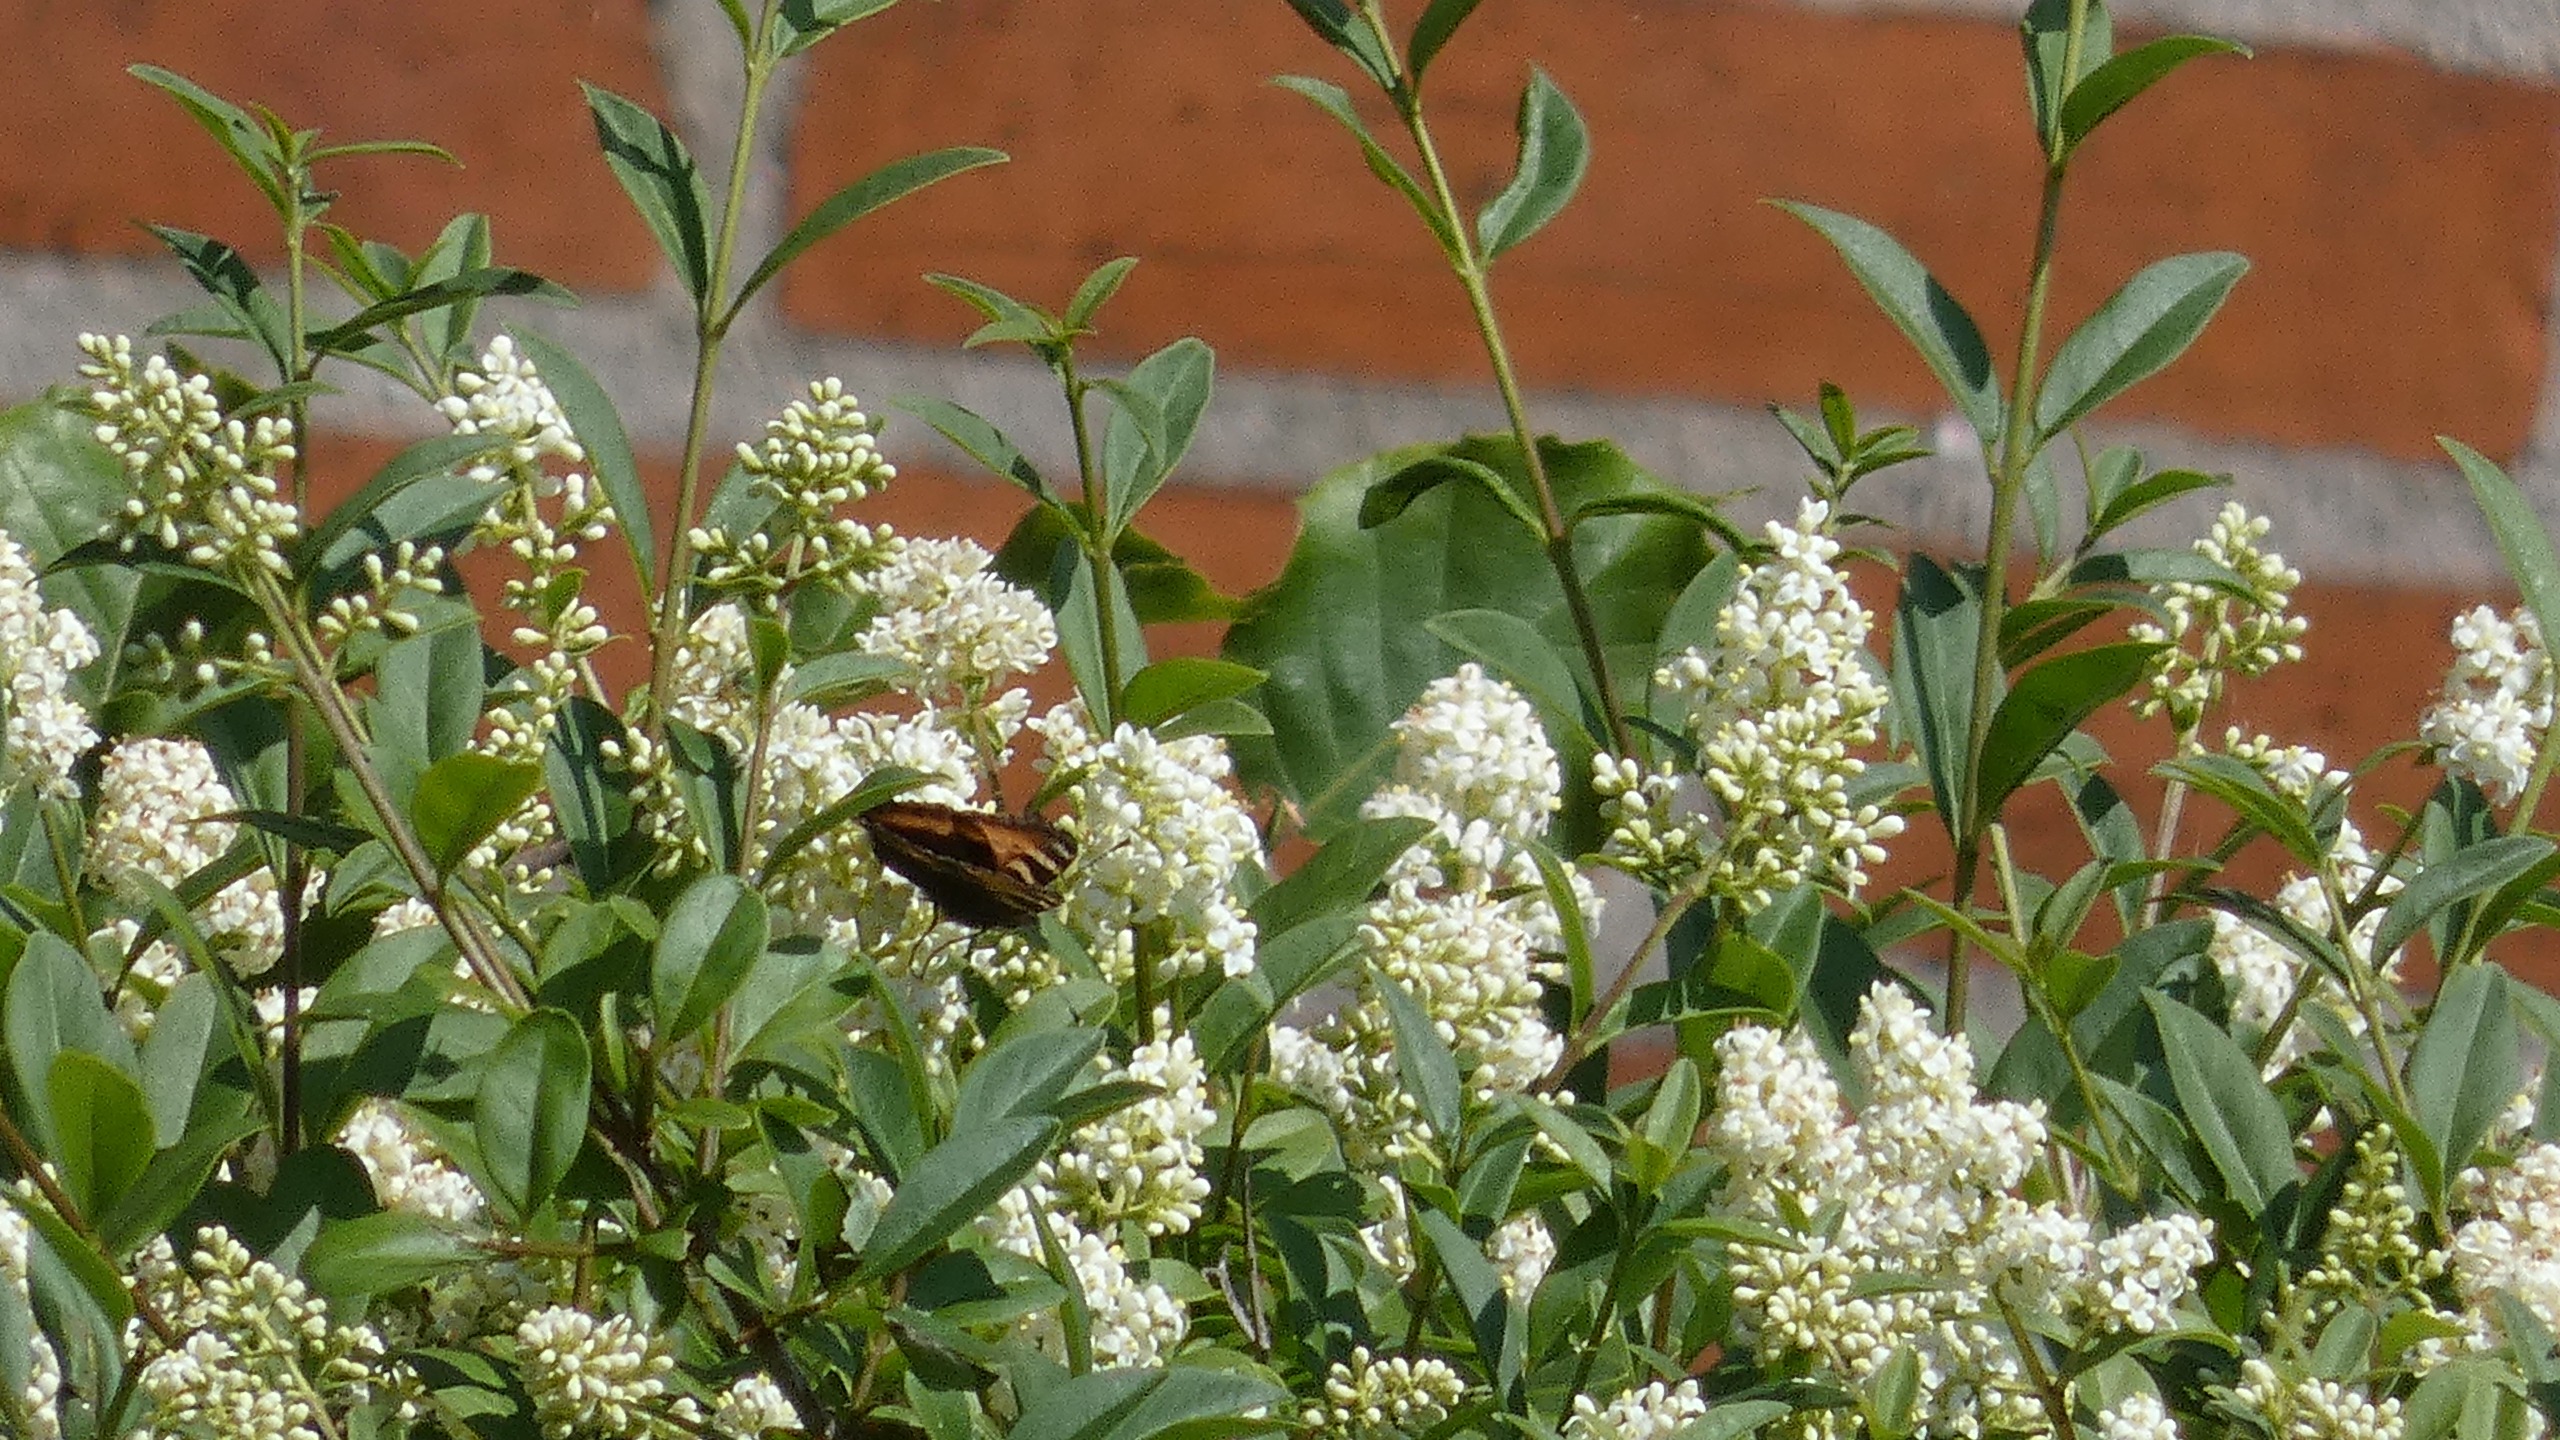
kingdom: Animalia
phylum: Arthropoda
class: Insecta
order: Lepidoptera
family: Nymphalidae
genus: Aglais
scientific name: Aglais urticae
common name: Nældens takvinge
